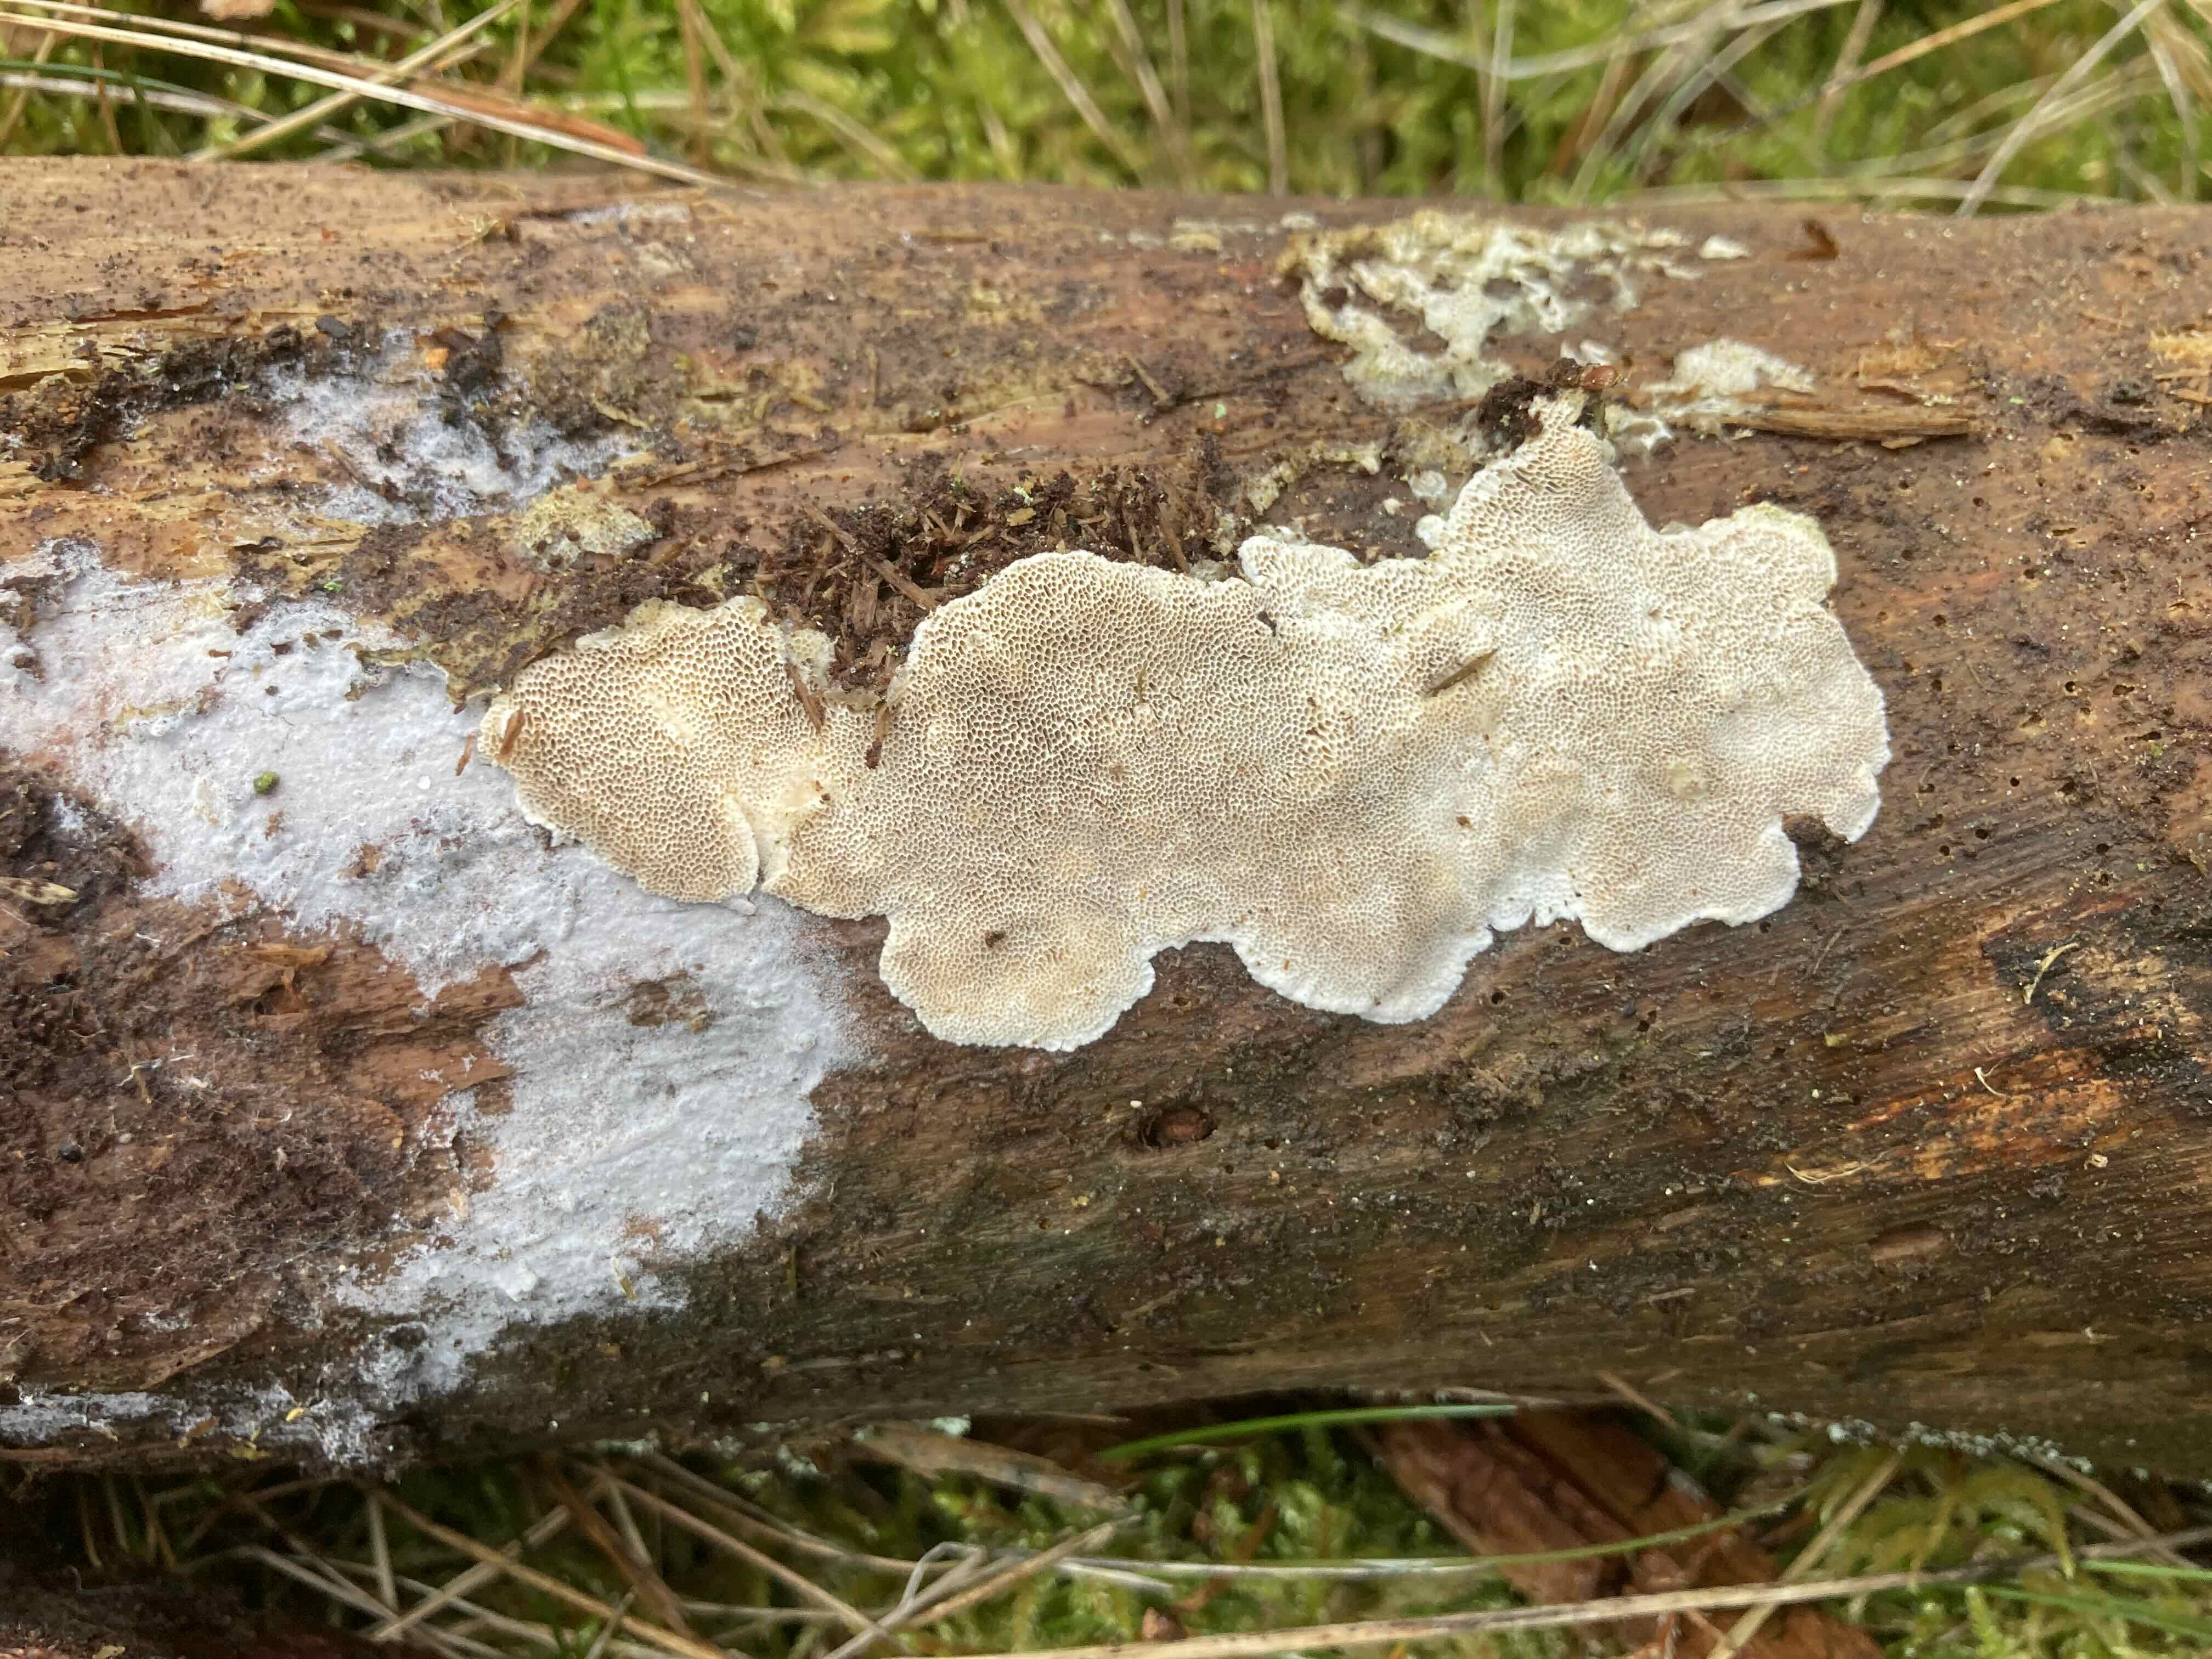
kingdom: Fungi
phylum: Basidiomycota
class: Agaricomycetes
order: Polyporales
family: Gelatoporiaceae
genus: Cinereomyces
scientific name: Cinereomyces lindbladii
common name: almindelig gråporesvamp
